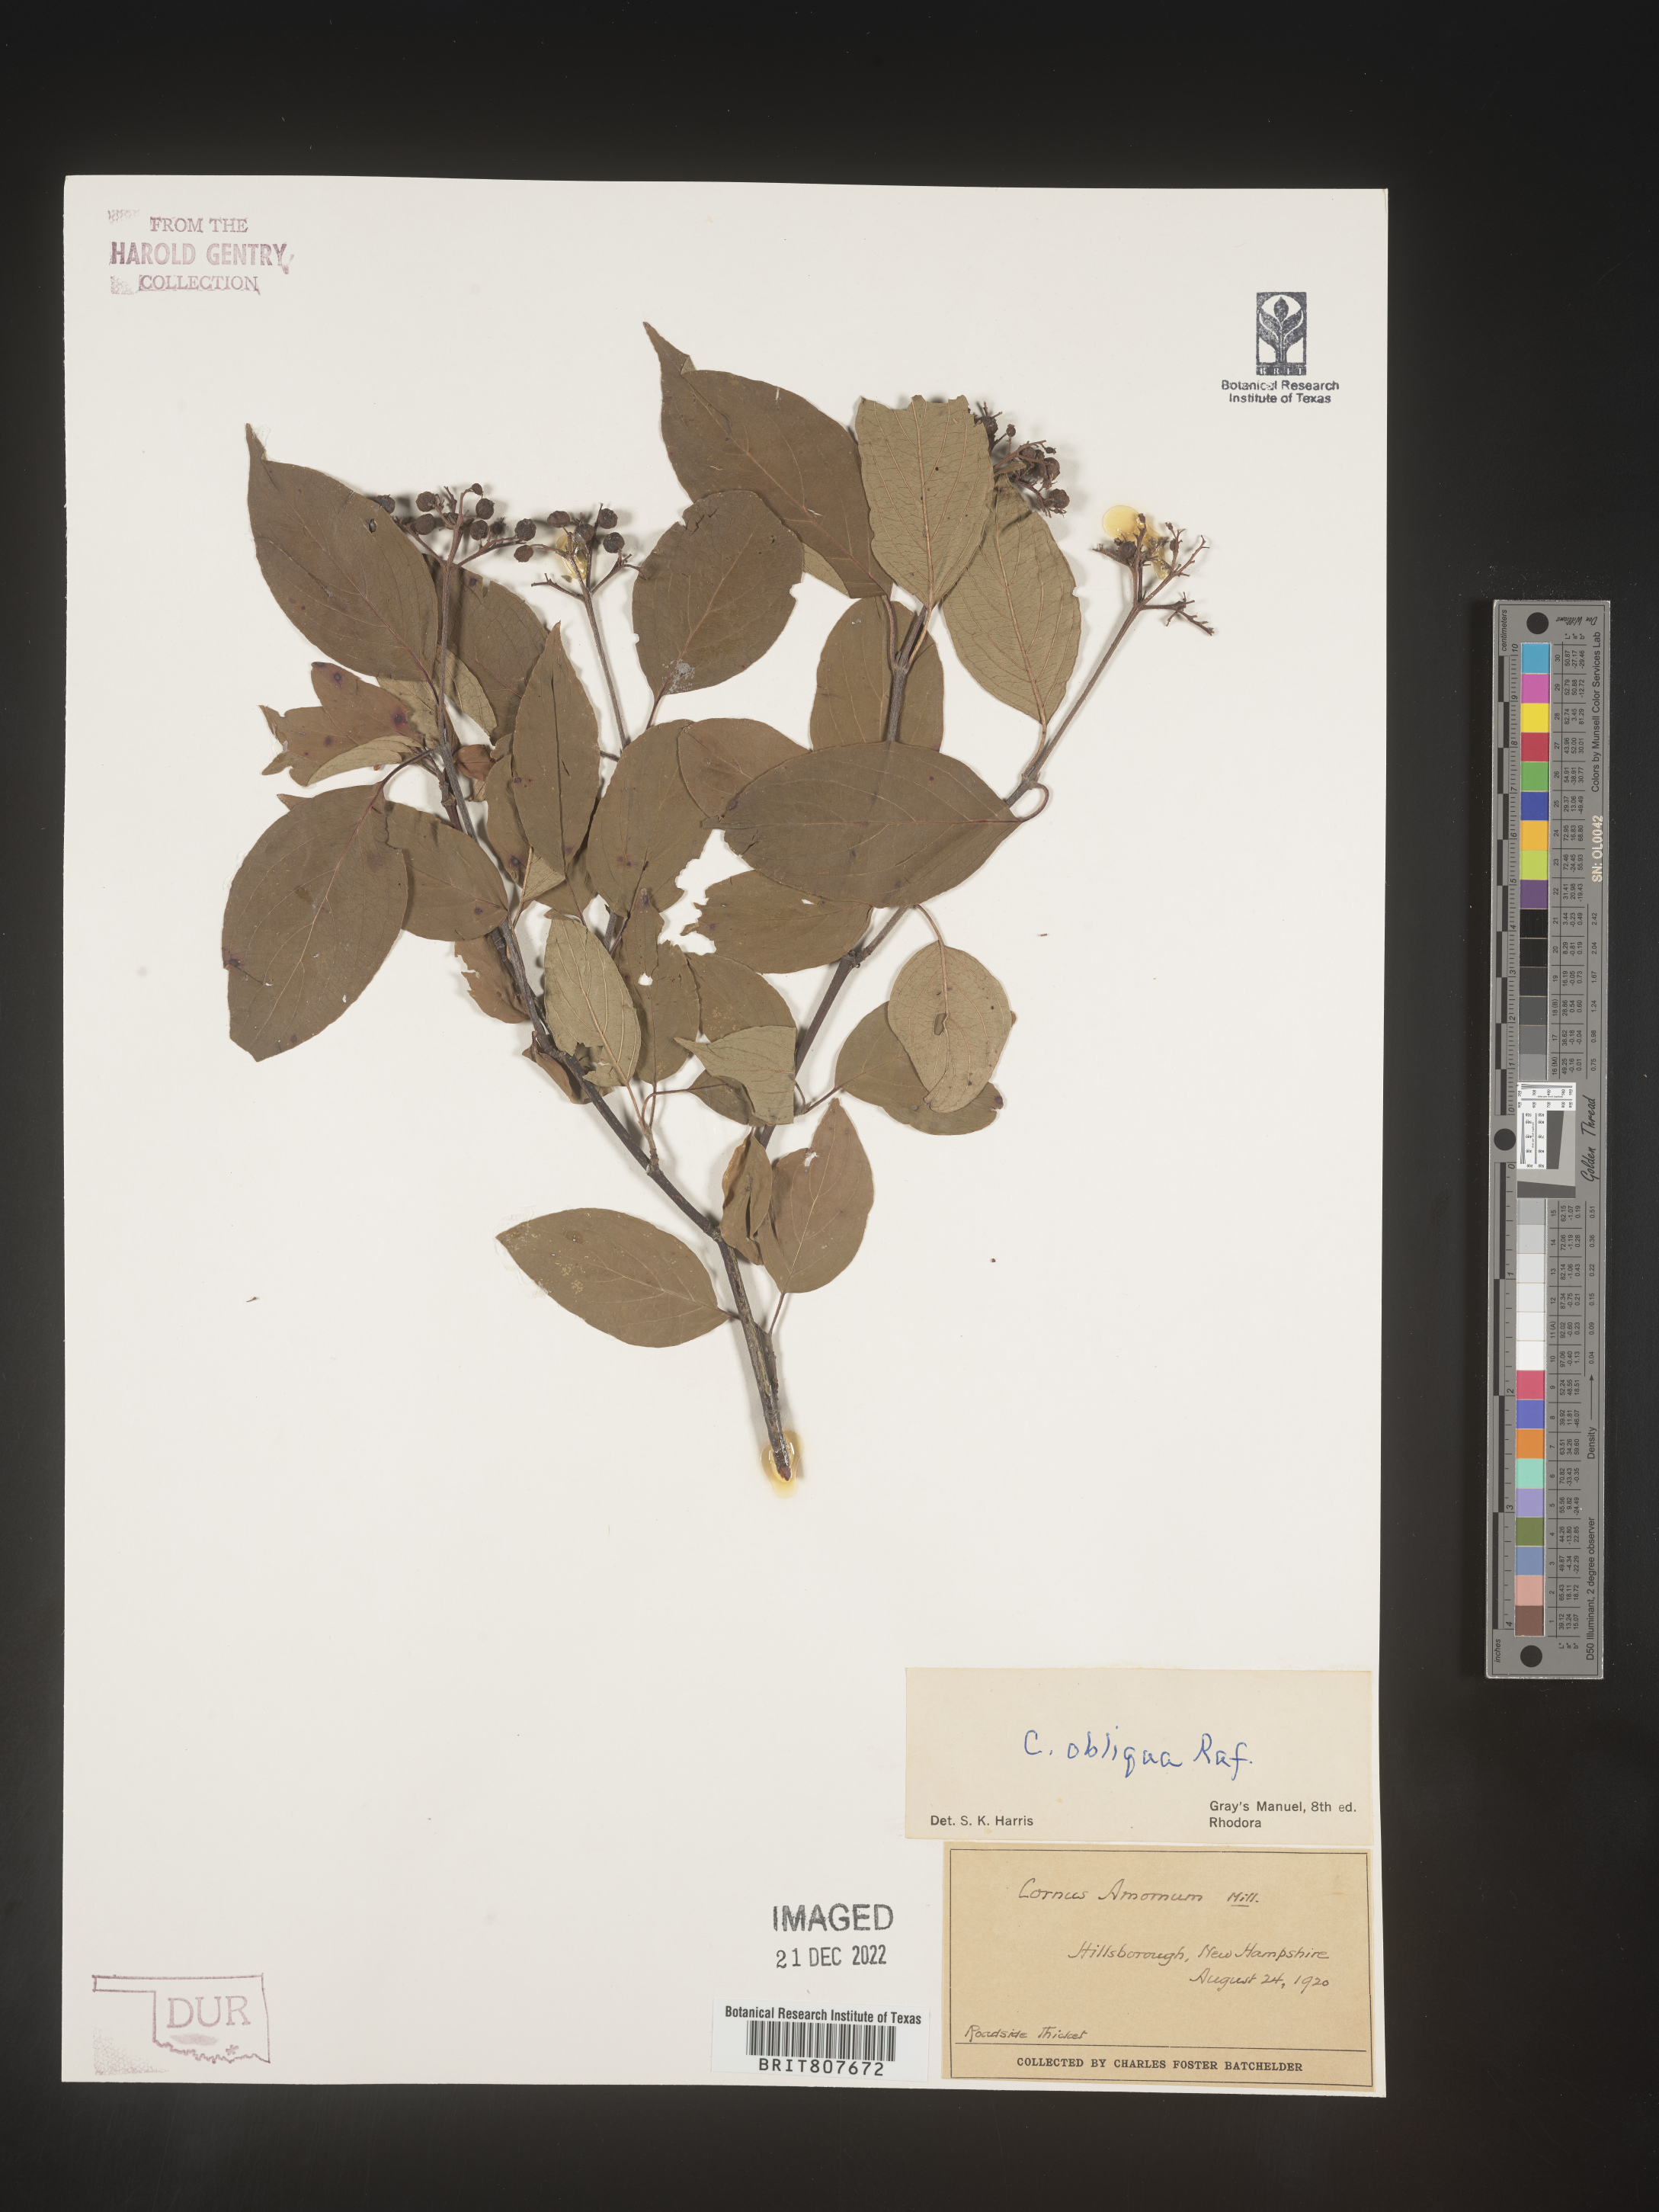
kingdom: Plantae
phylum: Tracheophyta
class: Magnoliopsida
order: Cornales
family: Cornaceae
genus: Cornus
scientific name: Cornus obliqua
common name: Pale dogwood
